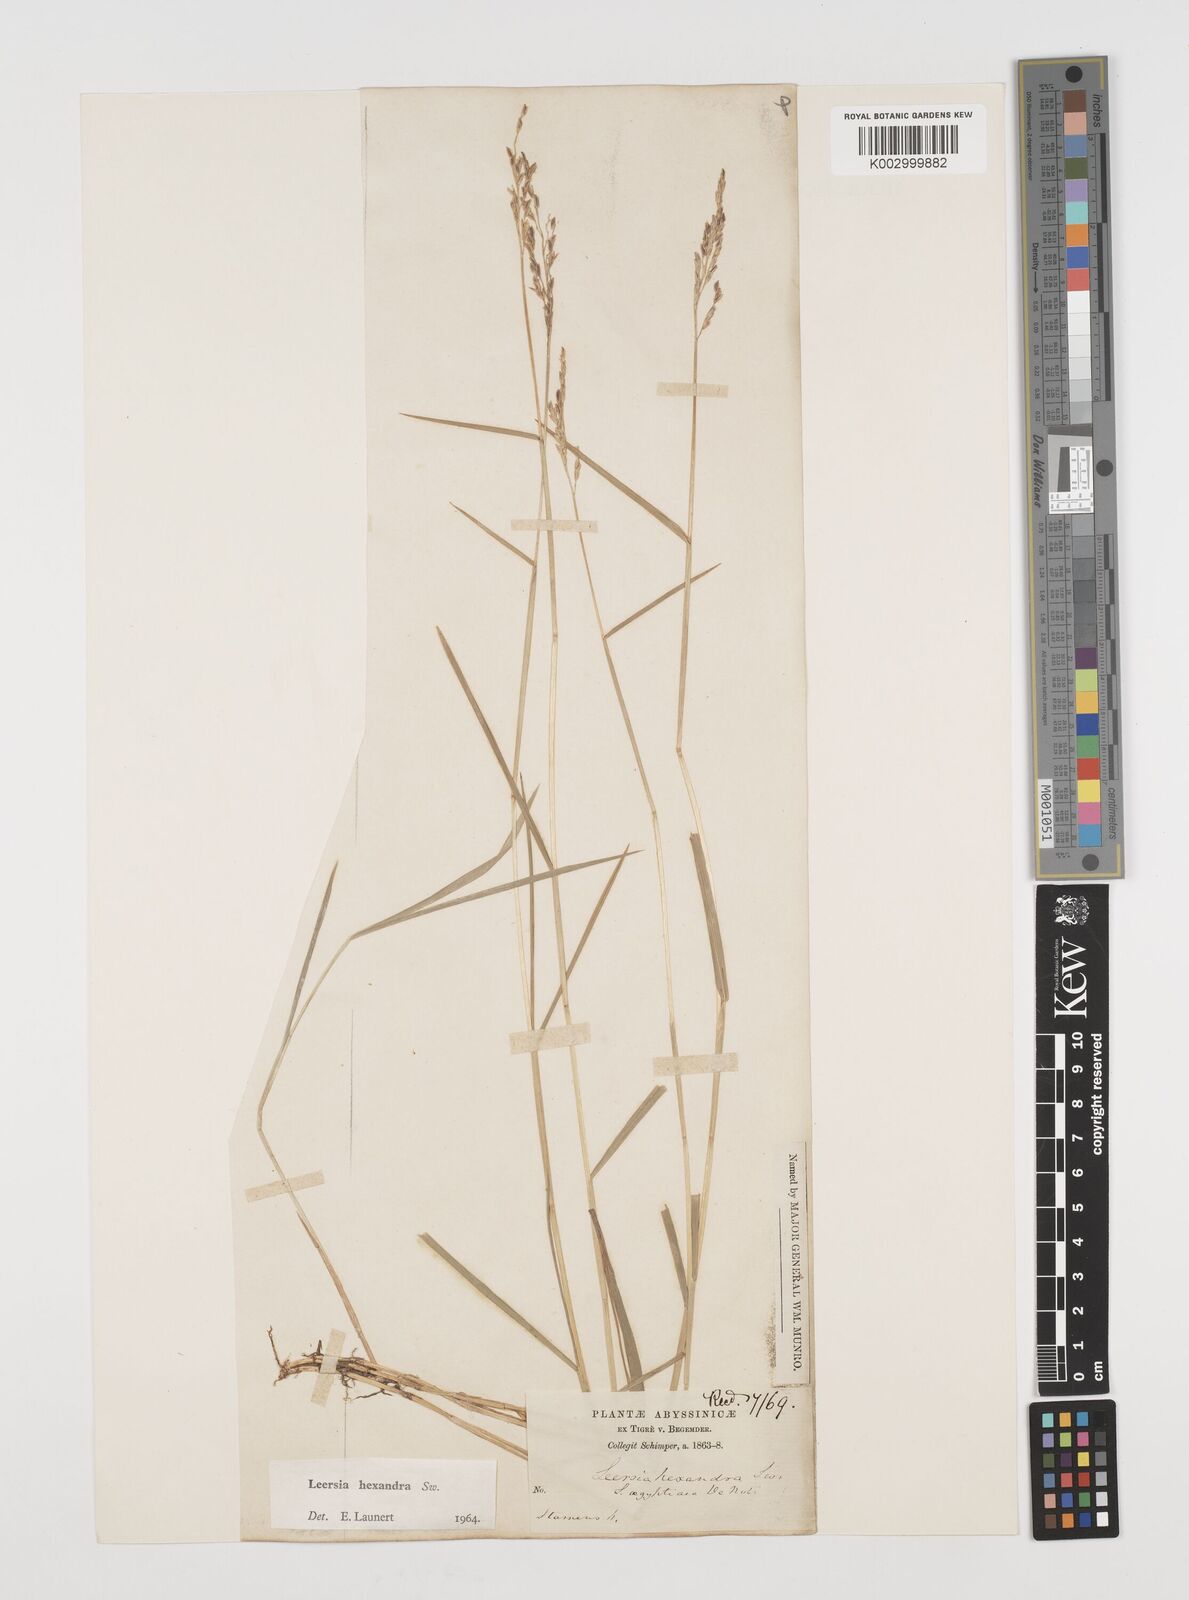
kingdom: Plantae
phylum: Tracheophyta
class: Liliopsida
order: Poales
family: Poaceae
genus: Leersia
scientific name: Leersia hexandra
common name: Southern cut grass
